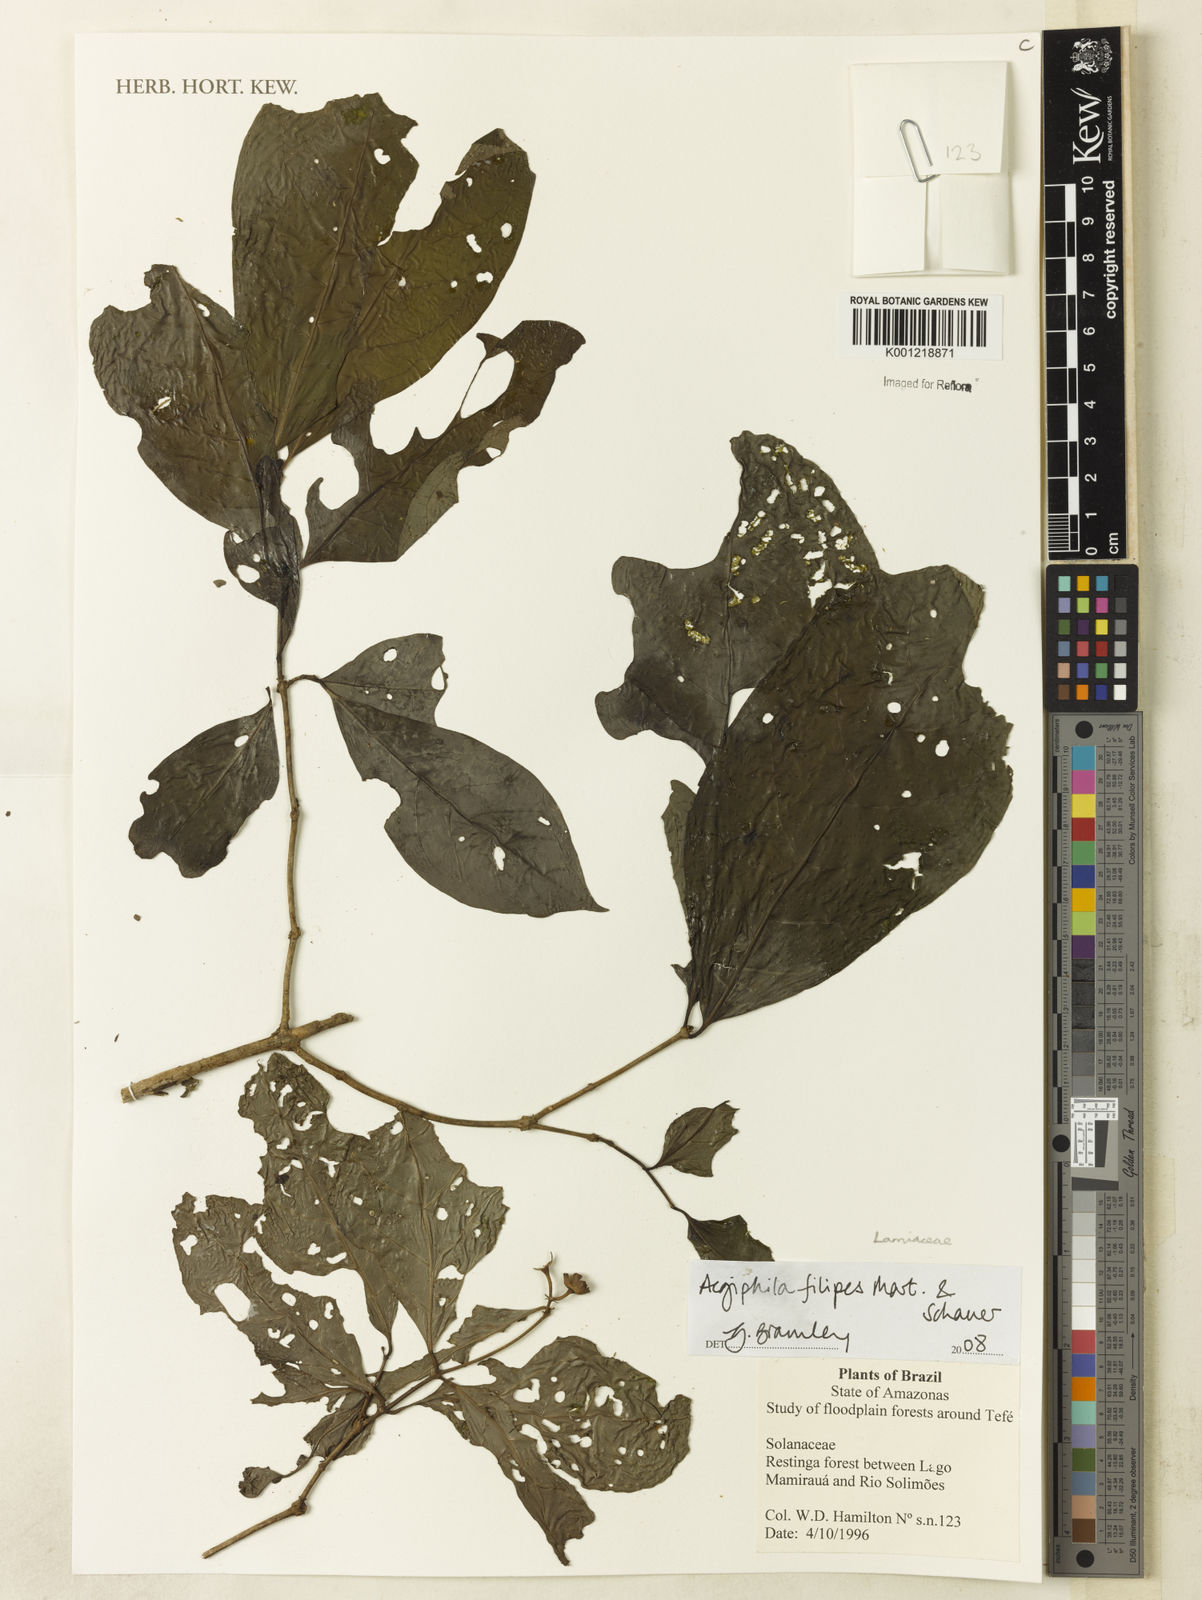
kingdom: Plantae
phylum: Tracheophyta
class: Magnoliopsida
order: Lamiales
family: Lamiaceae
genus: Aegiphila
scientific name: Aegiphila filipes
